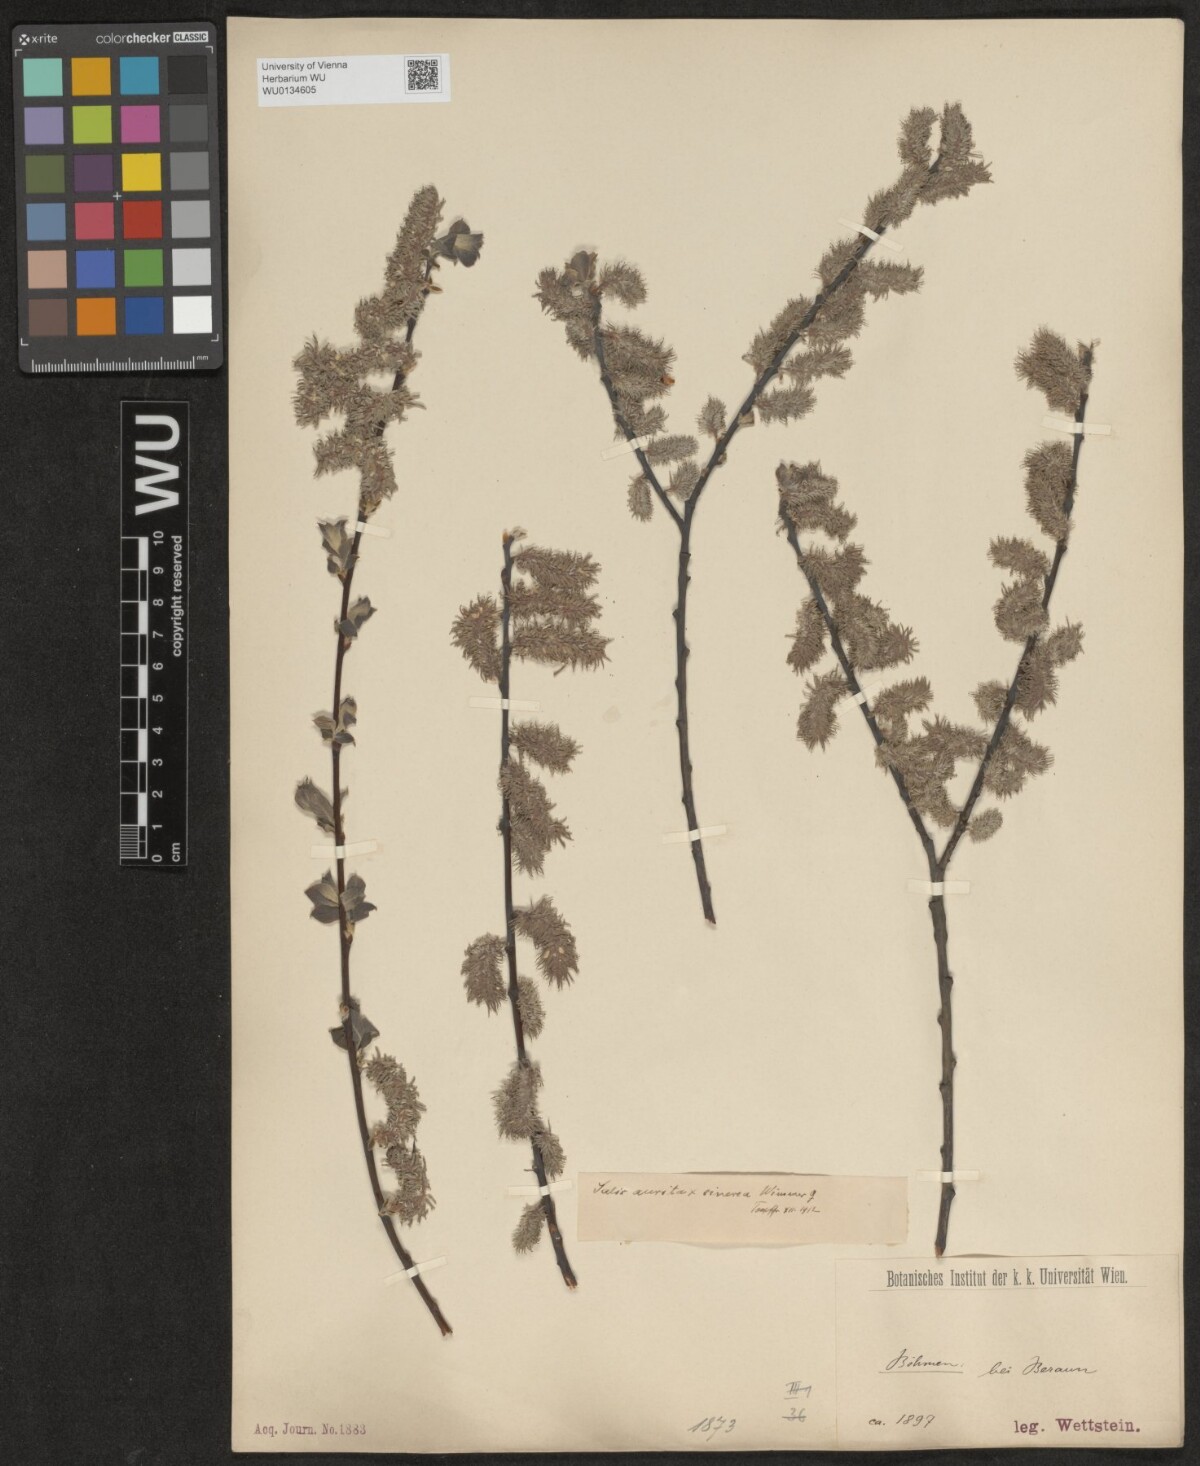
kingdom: Plantae
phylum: Tracheophyta
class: Magnoliopsida
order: Malpighiales
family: Salicaceae
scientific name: Salicaceae
